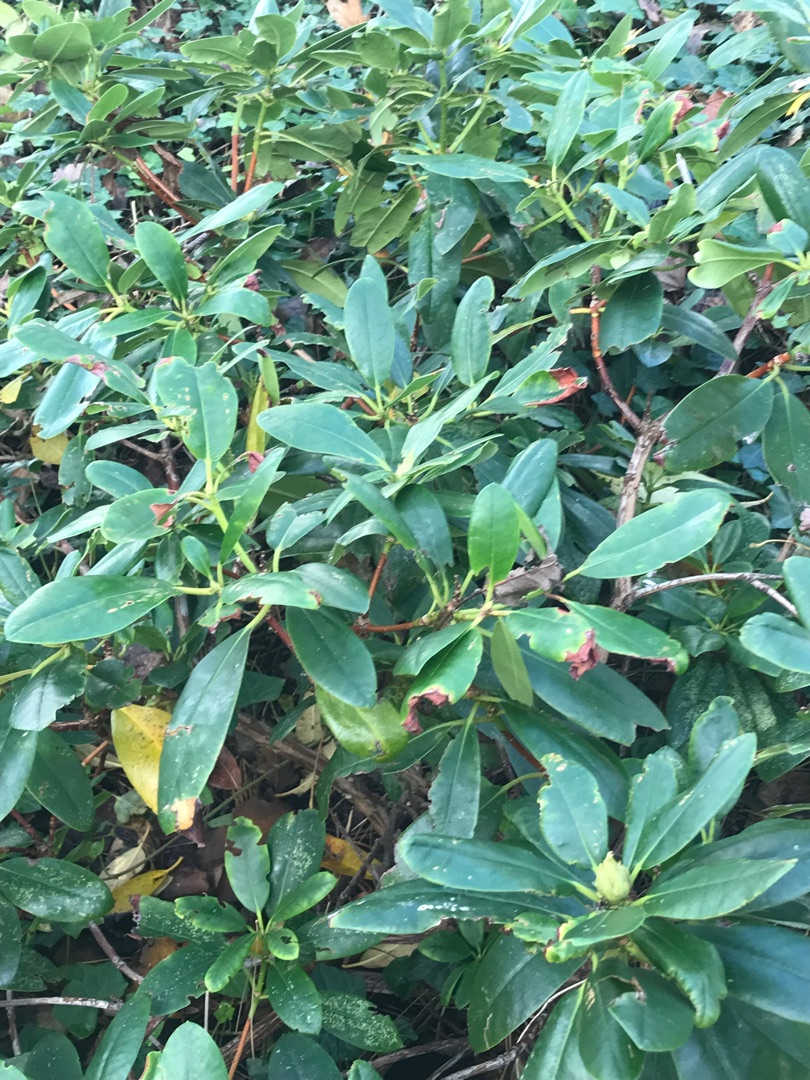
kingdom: Plantae
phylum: Tracheophyta
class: Magnoliopsida
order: Ericales
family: Ericaceae
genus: Rhododendron
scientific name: Rhododendron
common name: Rhododendronslægten
